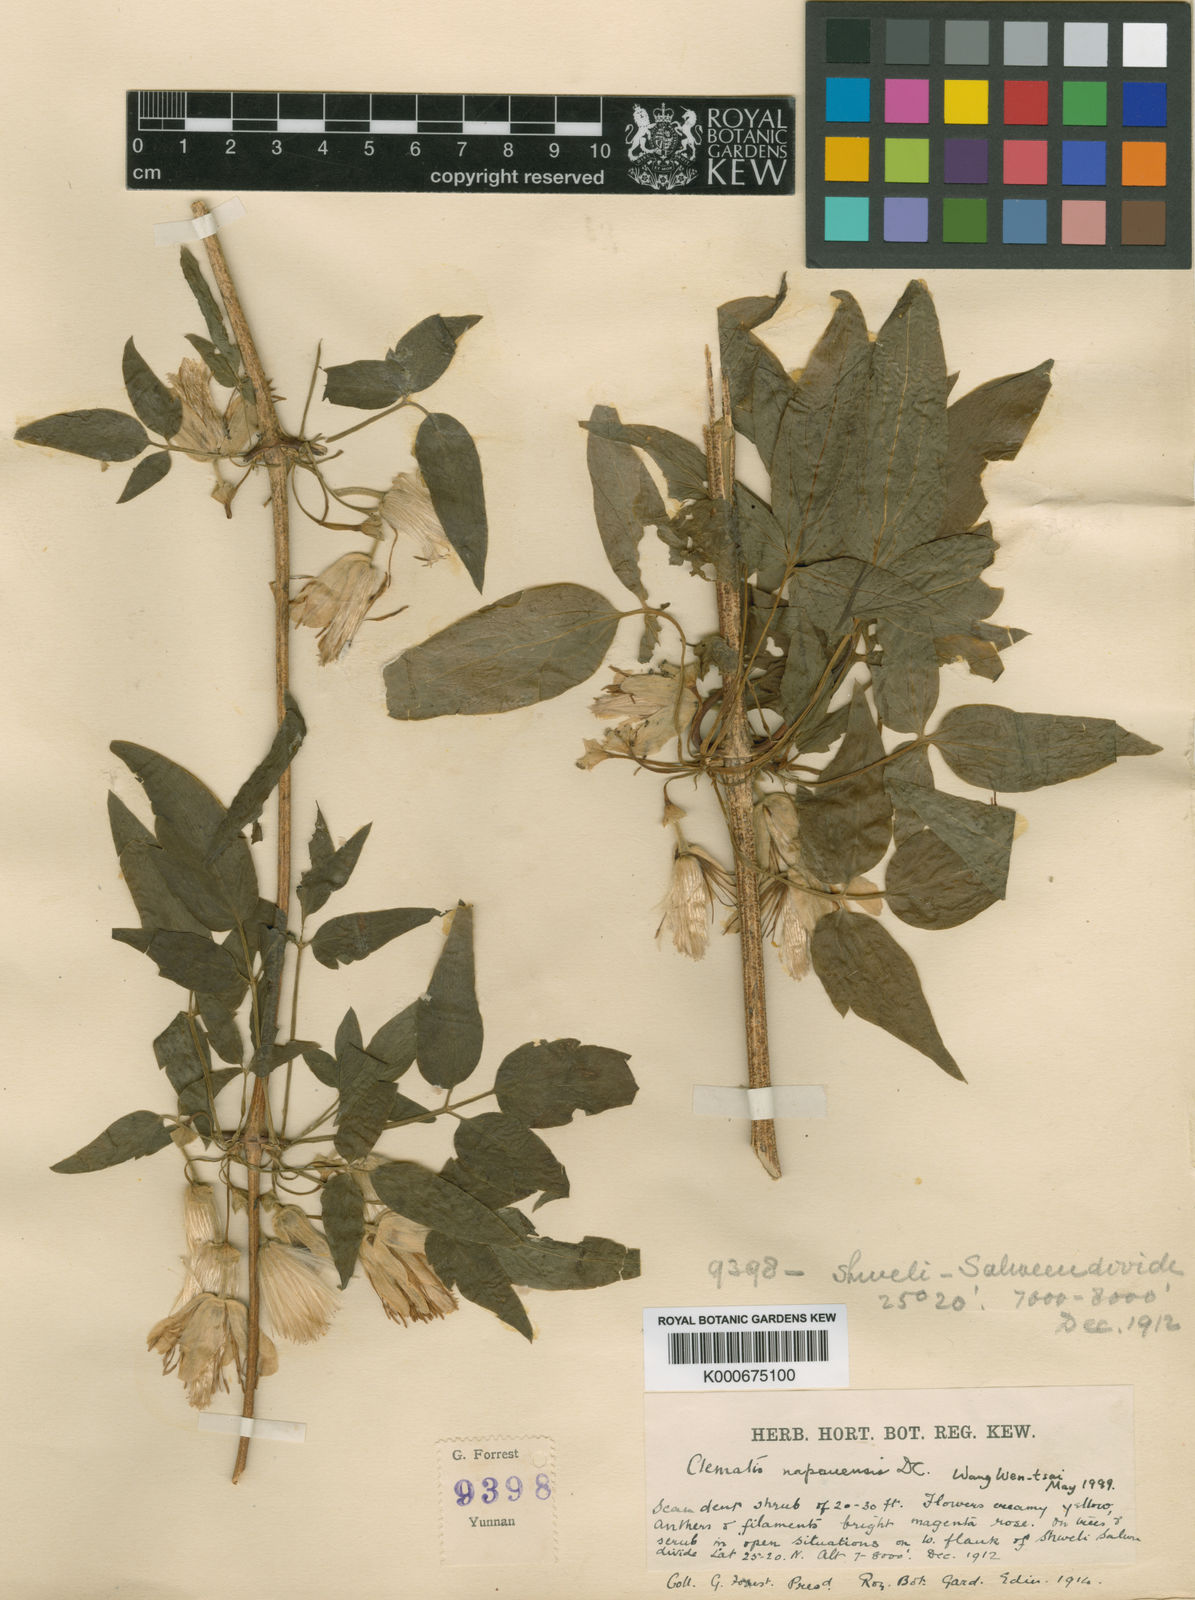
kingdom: Plantae
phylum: Tracheophyta
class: Magnoliopsida
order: Ranunculales
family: Ranunculaceae
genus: Clematis
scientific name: Clematis napaulensis
